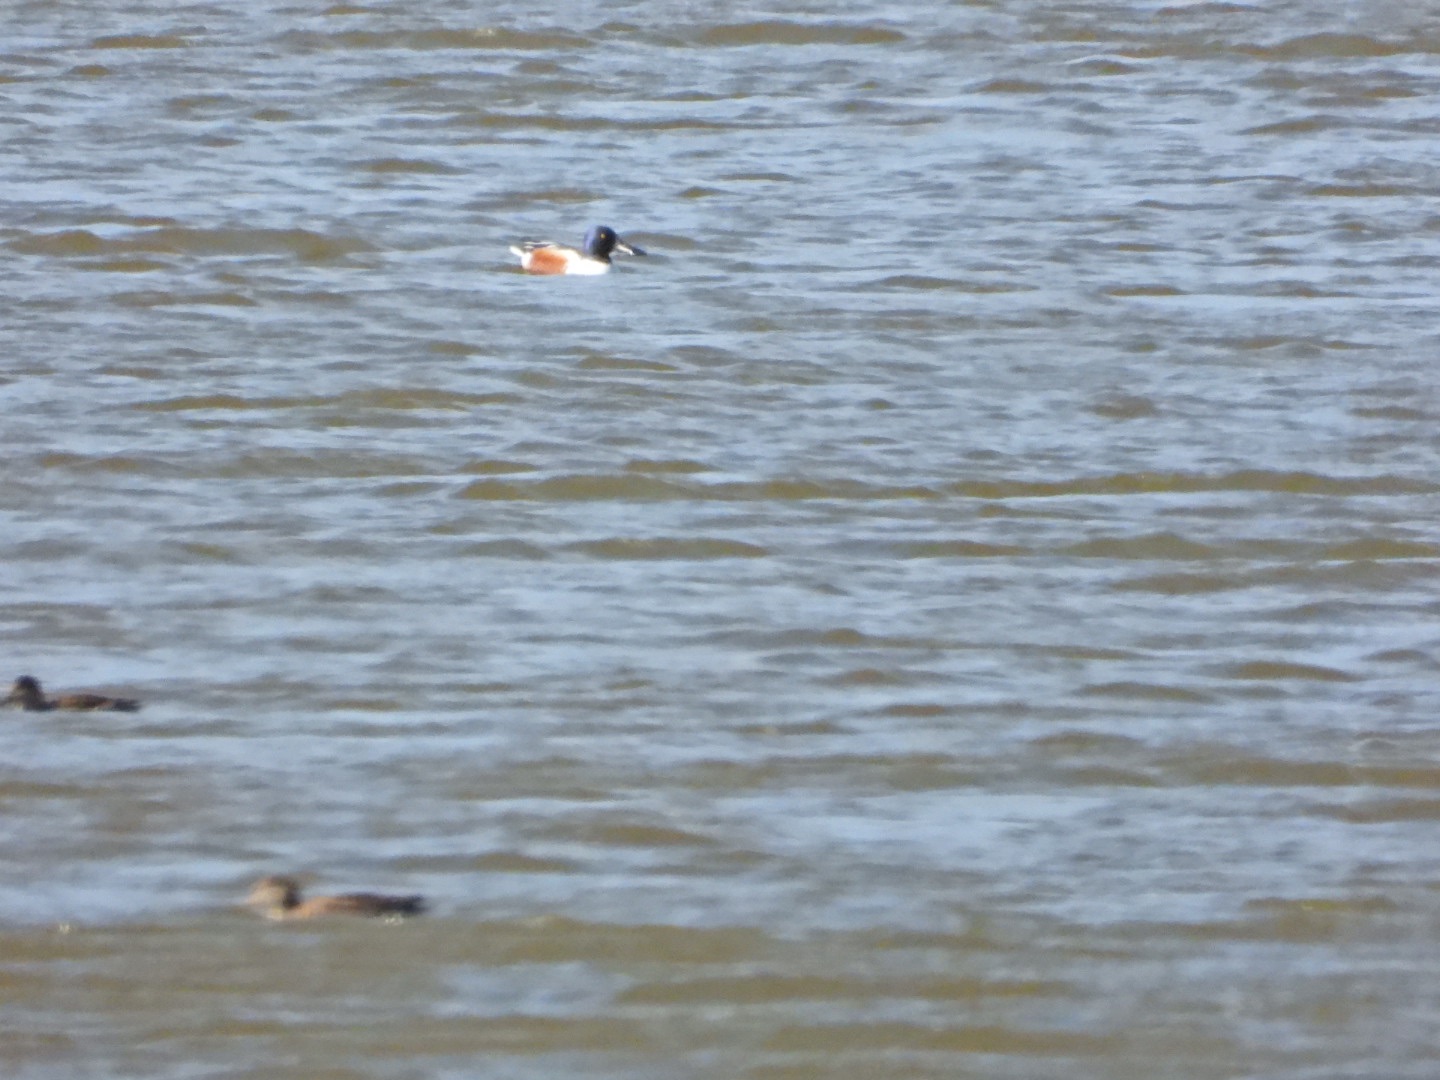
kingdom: Animalia
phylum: Chordata
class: Aves
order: Anseriformes
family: Anatidae
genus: Spatula
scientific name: Spatula clypeata
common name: Skeand
